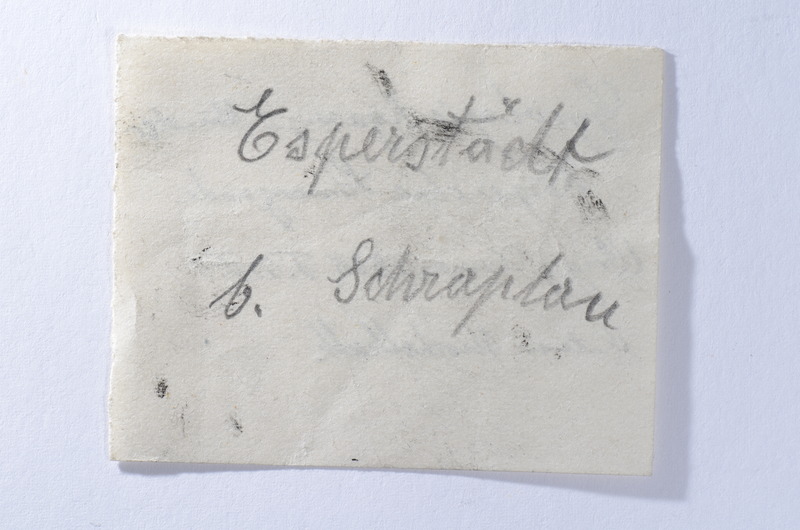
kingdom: Animalia
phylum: Chordata
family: Amblypteridae
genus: Amblypterus
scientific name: Amblypterus agassizii
